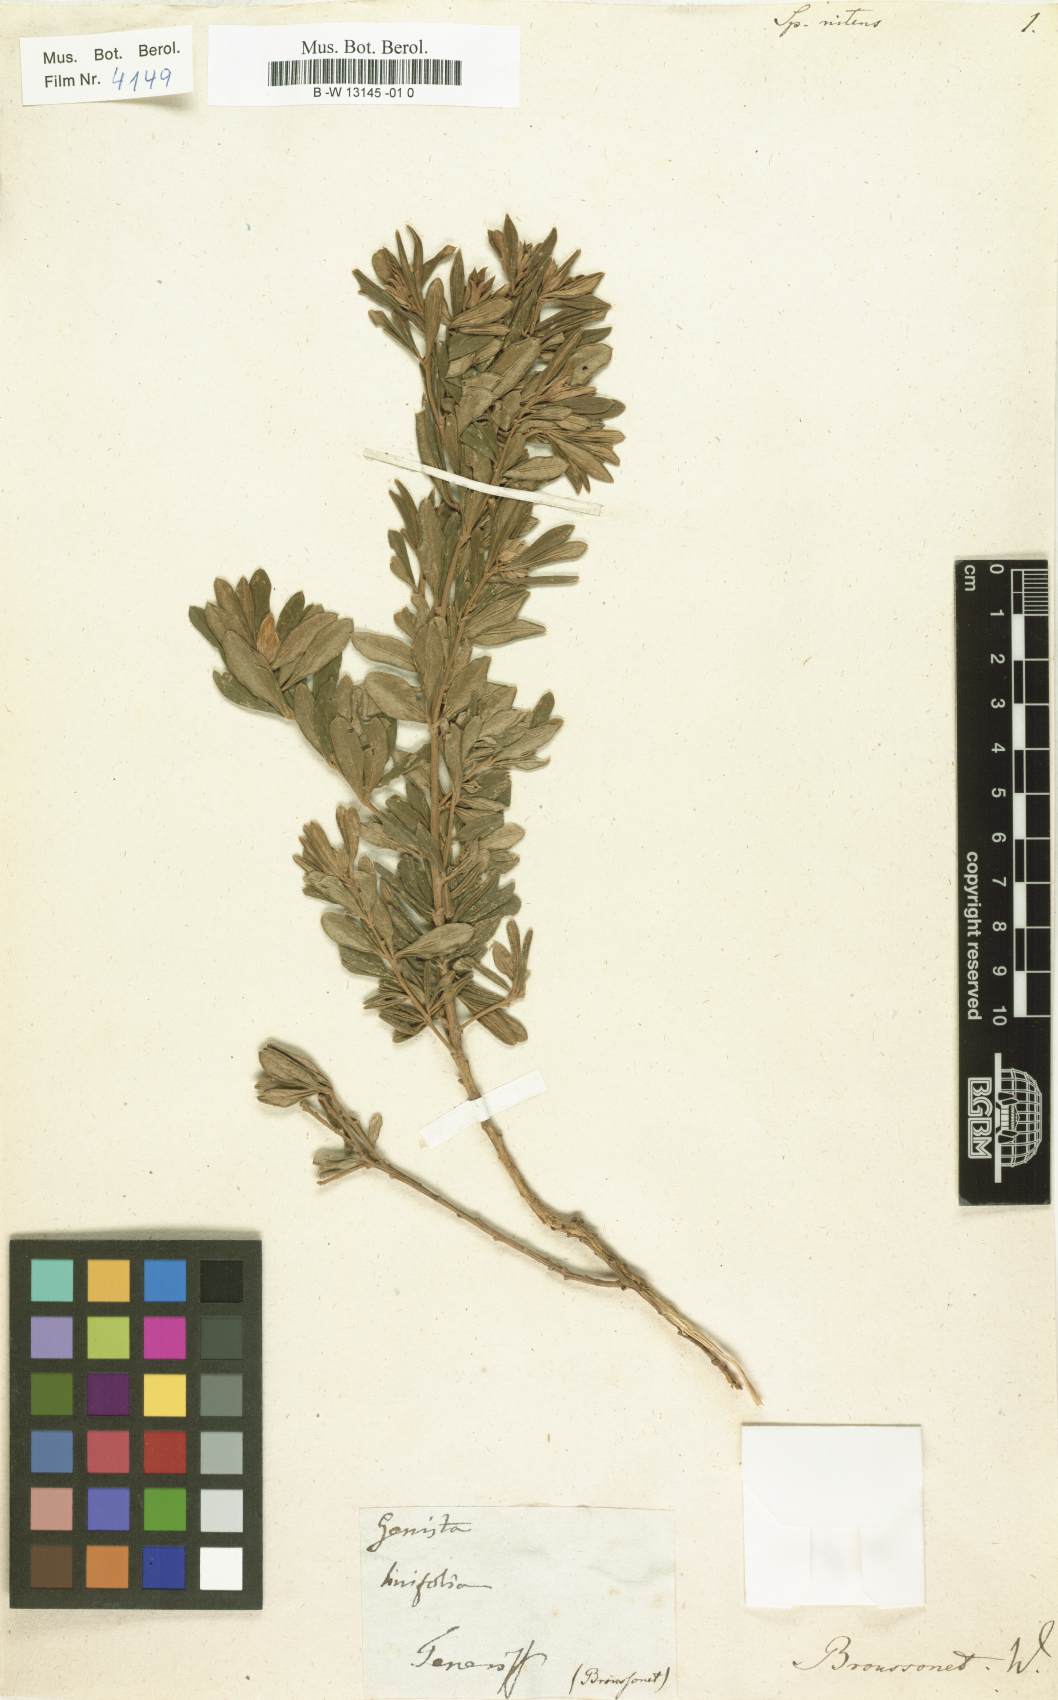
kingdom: Plantae
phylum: Tracheophyta
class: Magnoliopsida
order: Fabales
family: Fabaceae
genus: Genista
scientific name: Genista linifolia
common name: Mediterranean broom
